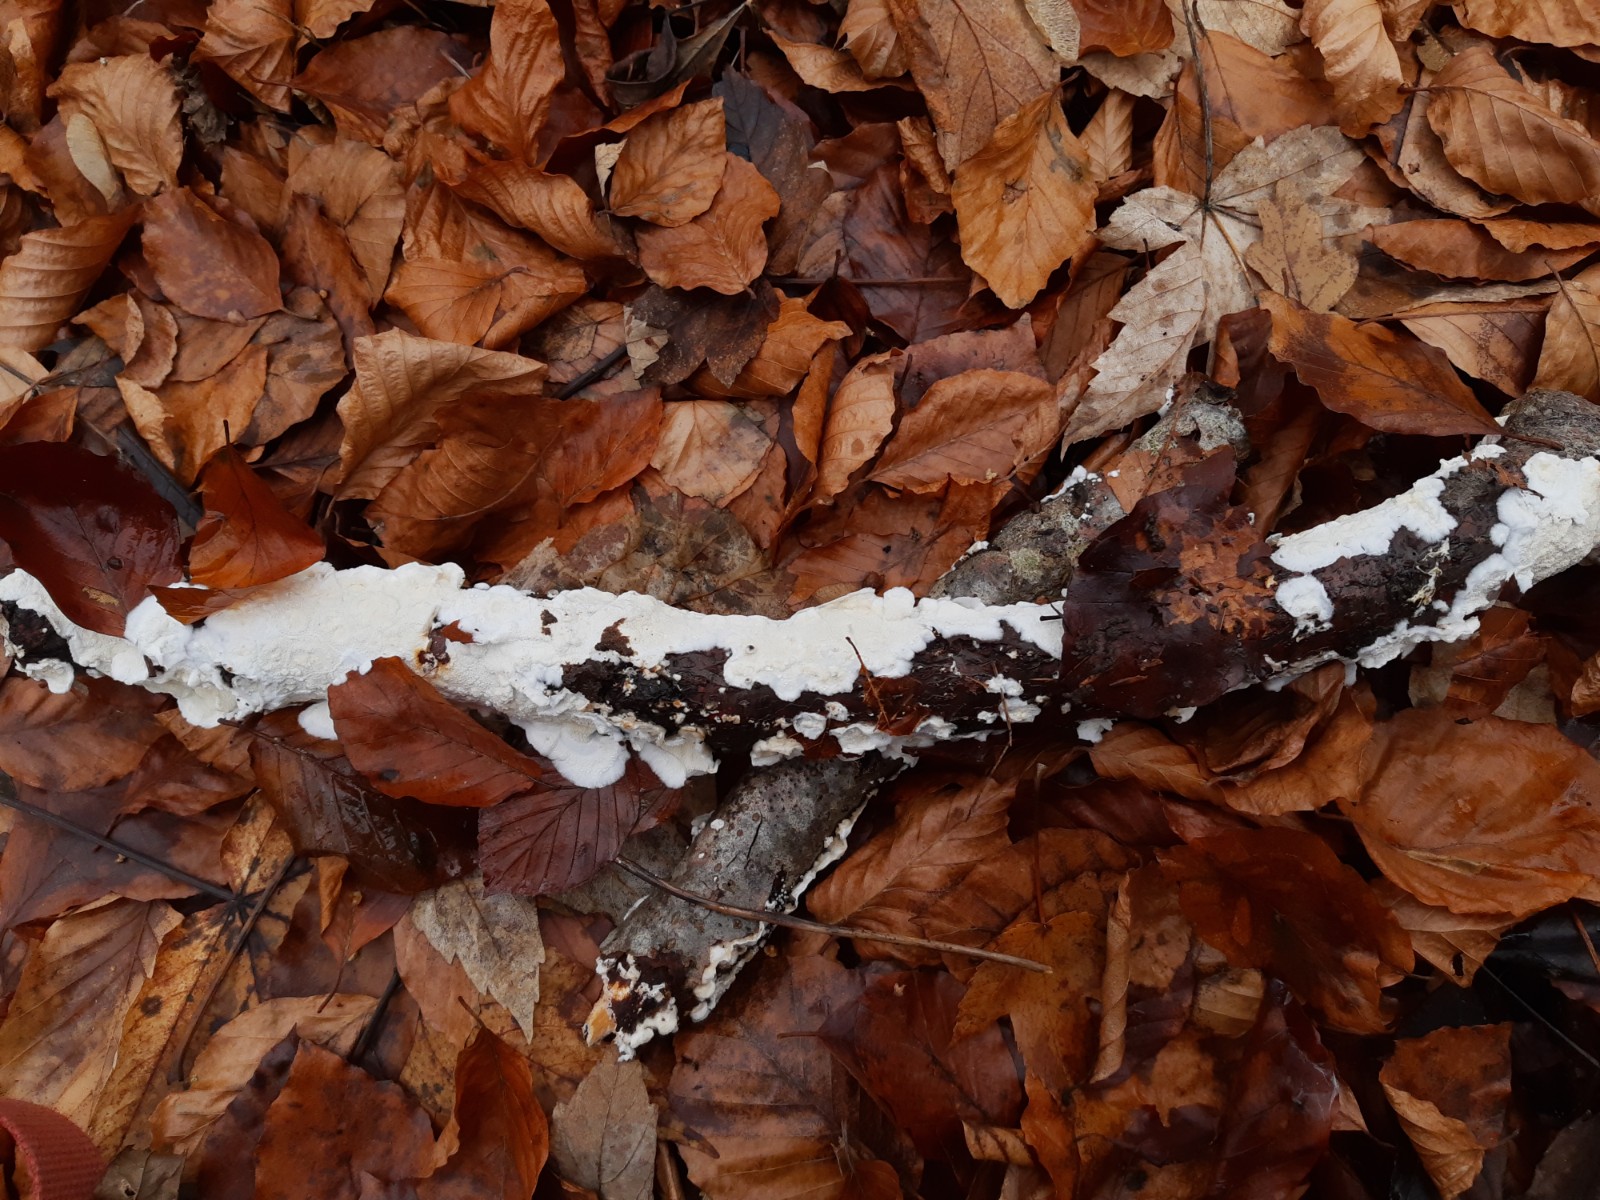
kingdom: Fungi
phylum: Basidiomycota
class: Agaricomycetes
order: Polyporales
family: Irpicaceae
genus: Byssomerulius
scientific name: Byssomerulius corium
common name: læder-åresvamp
